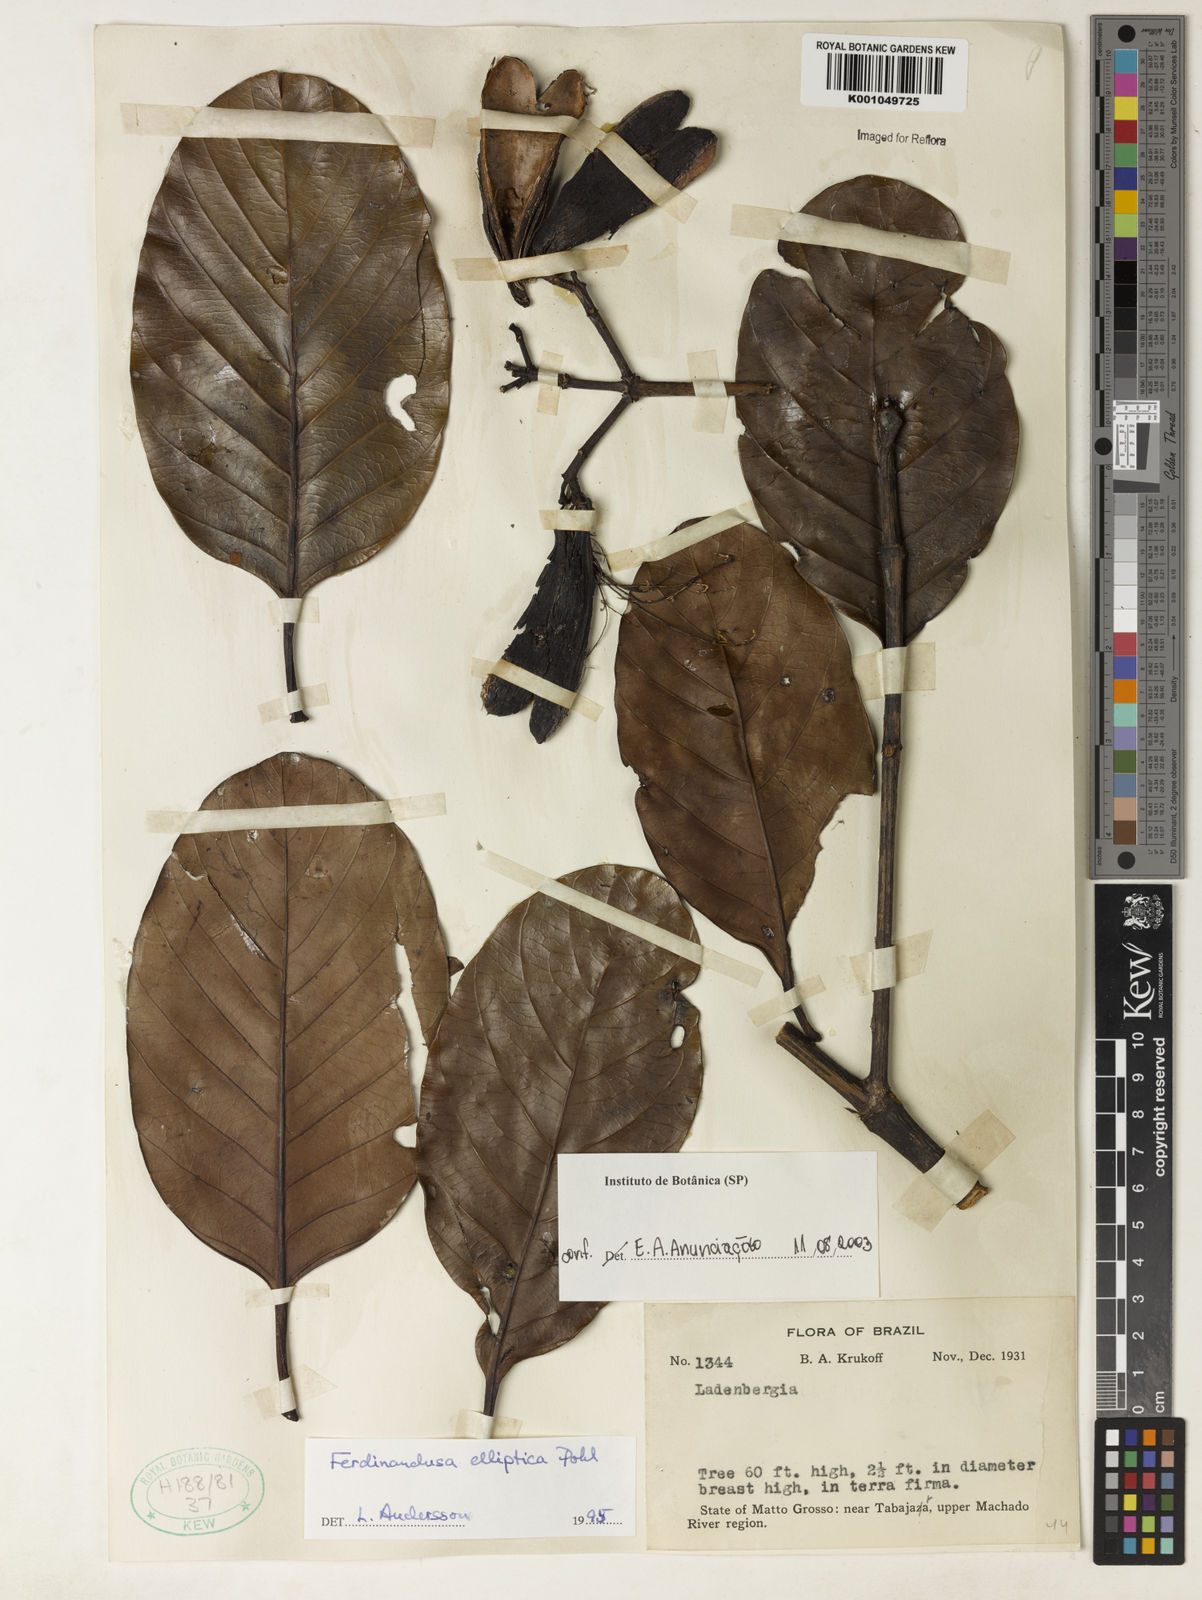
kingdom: Plantae
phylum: Tracheophyta
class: Magnoliopsida
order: Gentianales
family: Rubiaceae
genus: Ferdinandusa
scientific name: Ferdinandusa elliptica
